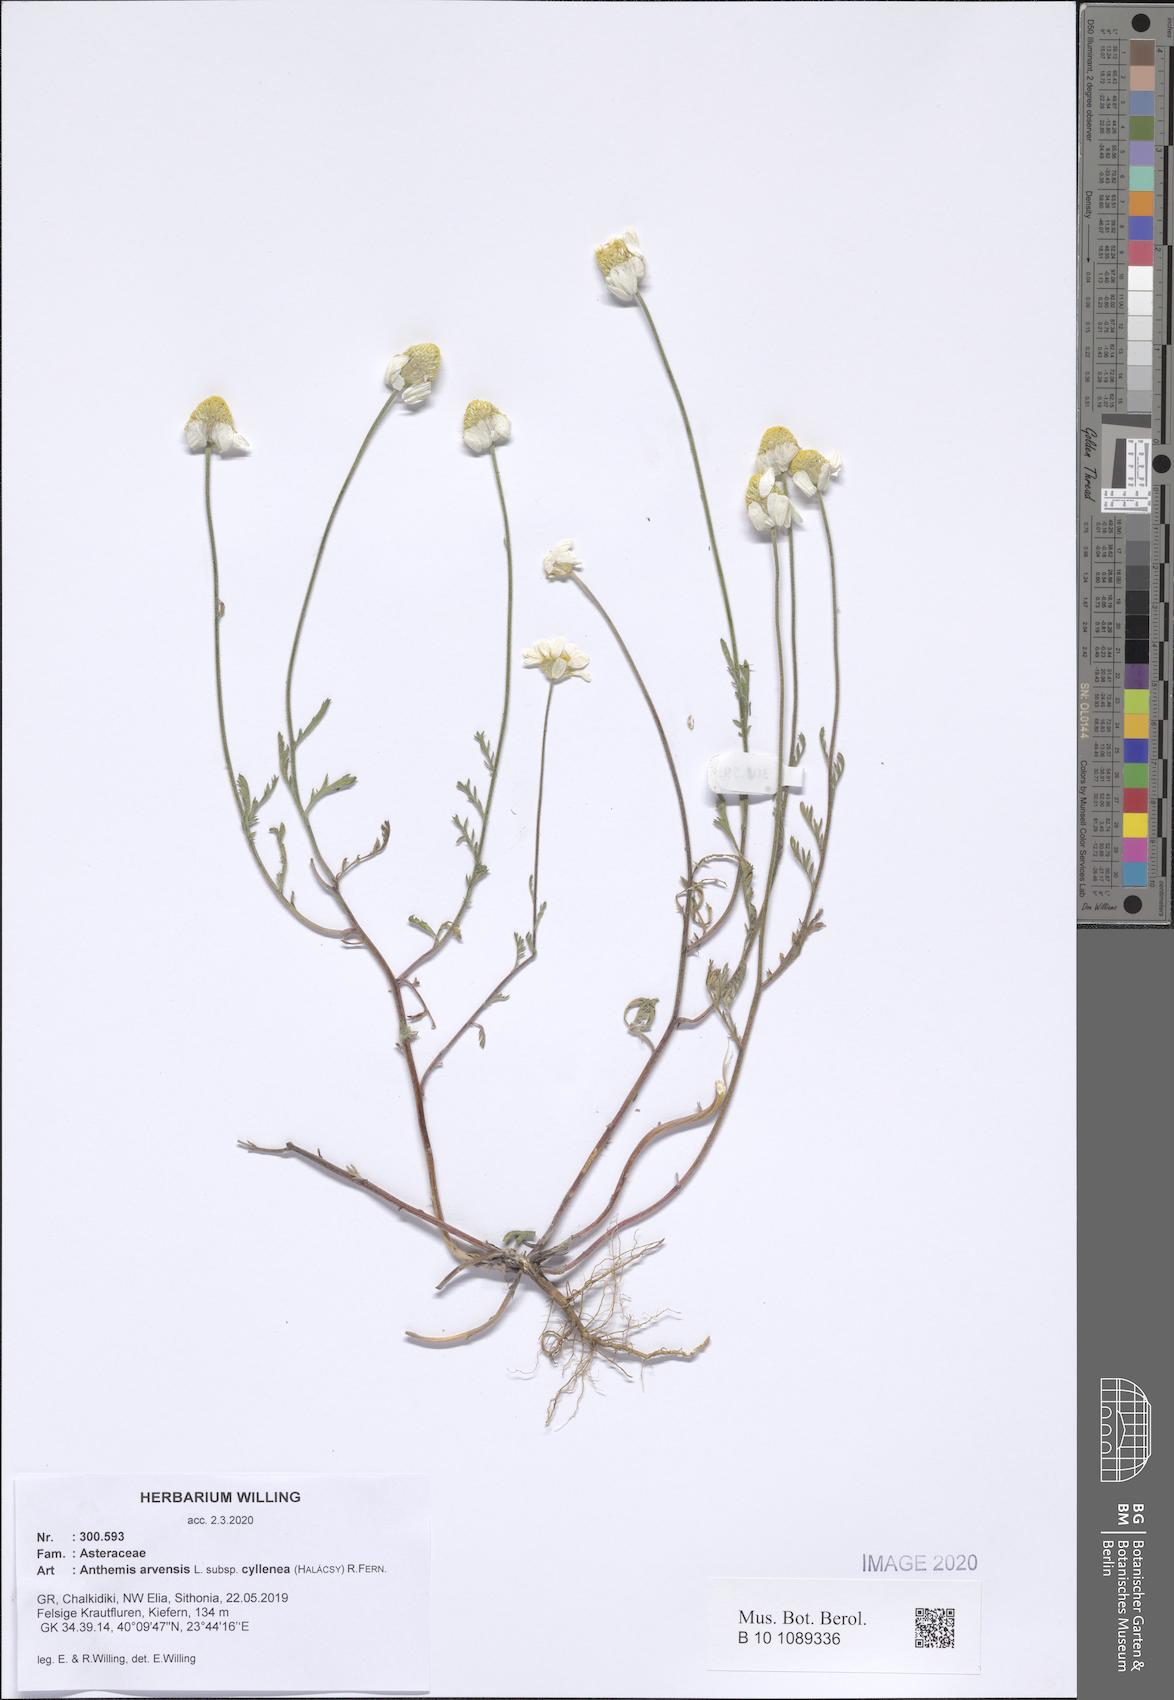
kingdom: Plantae
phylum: Tracheophyta
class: Magnoliopsida
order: Asterales
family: Asteraceae
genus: Anthemis
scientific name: Anthemis arvensis
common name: Corn chamomile
